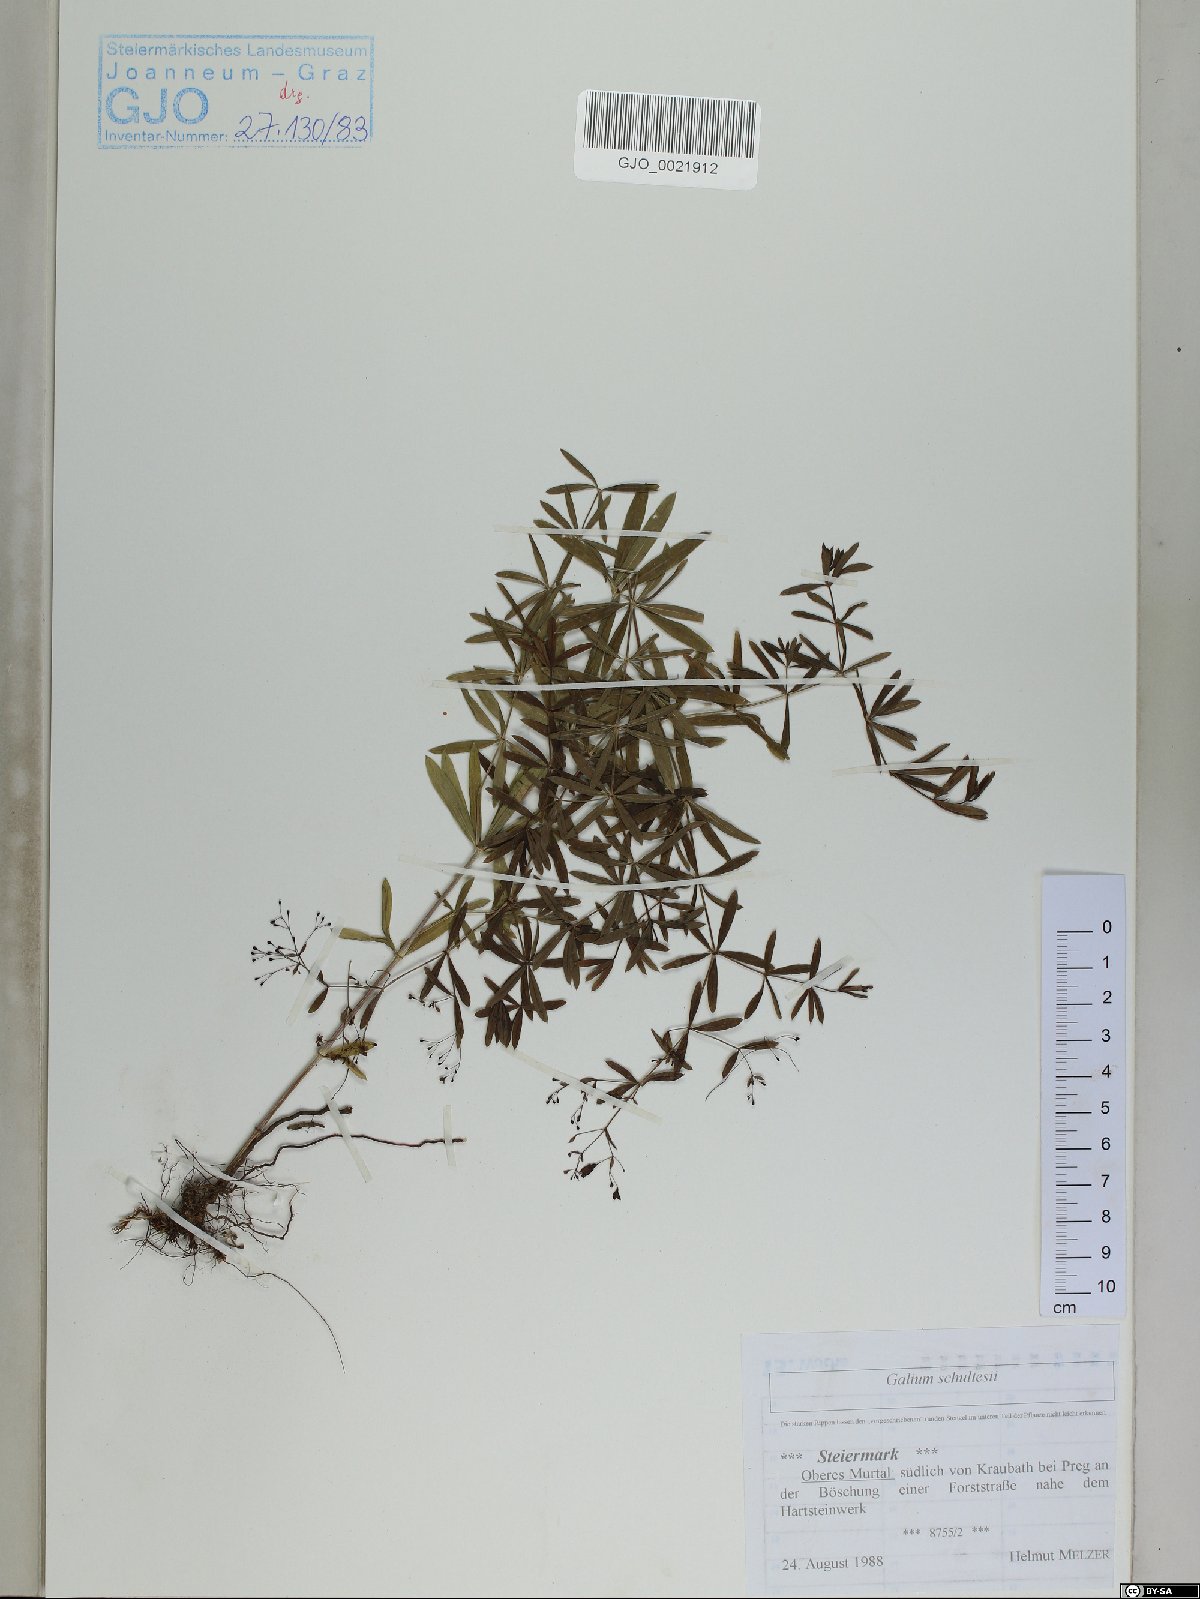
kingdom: Plantae
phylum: Tracheophyta
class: Magnoliopsida
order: Gentianales
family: Rubiaceae
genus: Galium
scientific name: Galium intermedium
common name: Bedstraw
